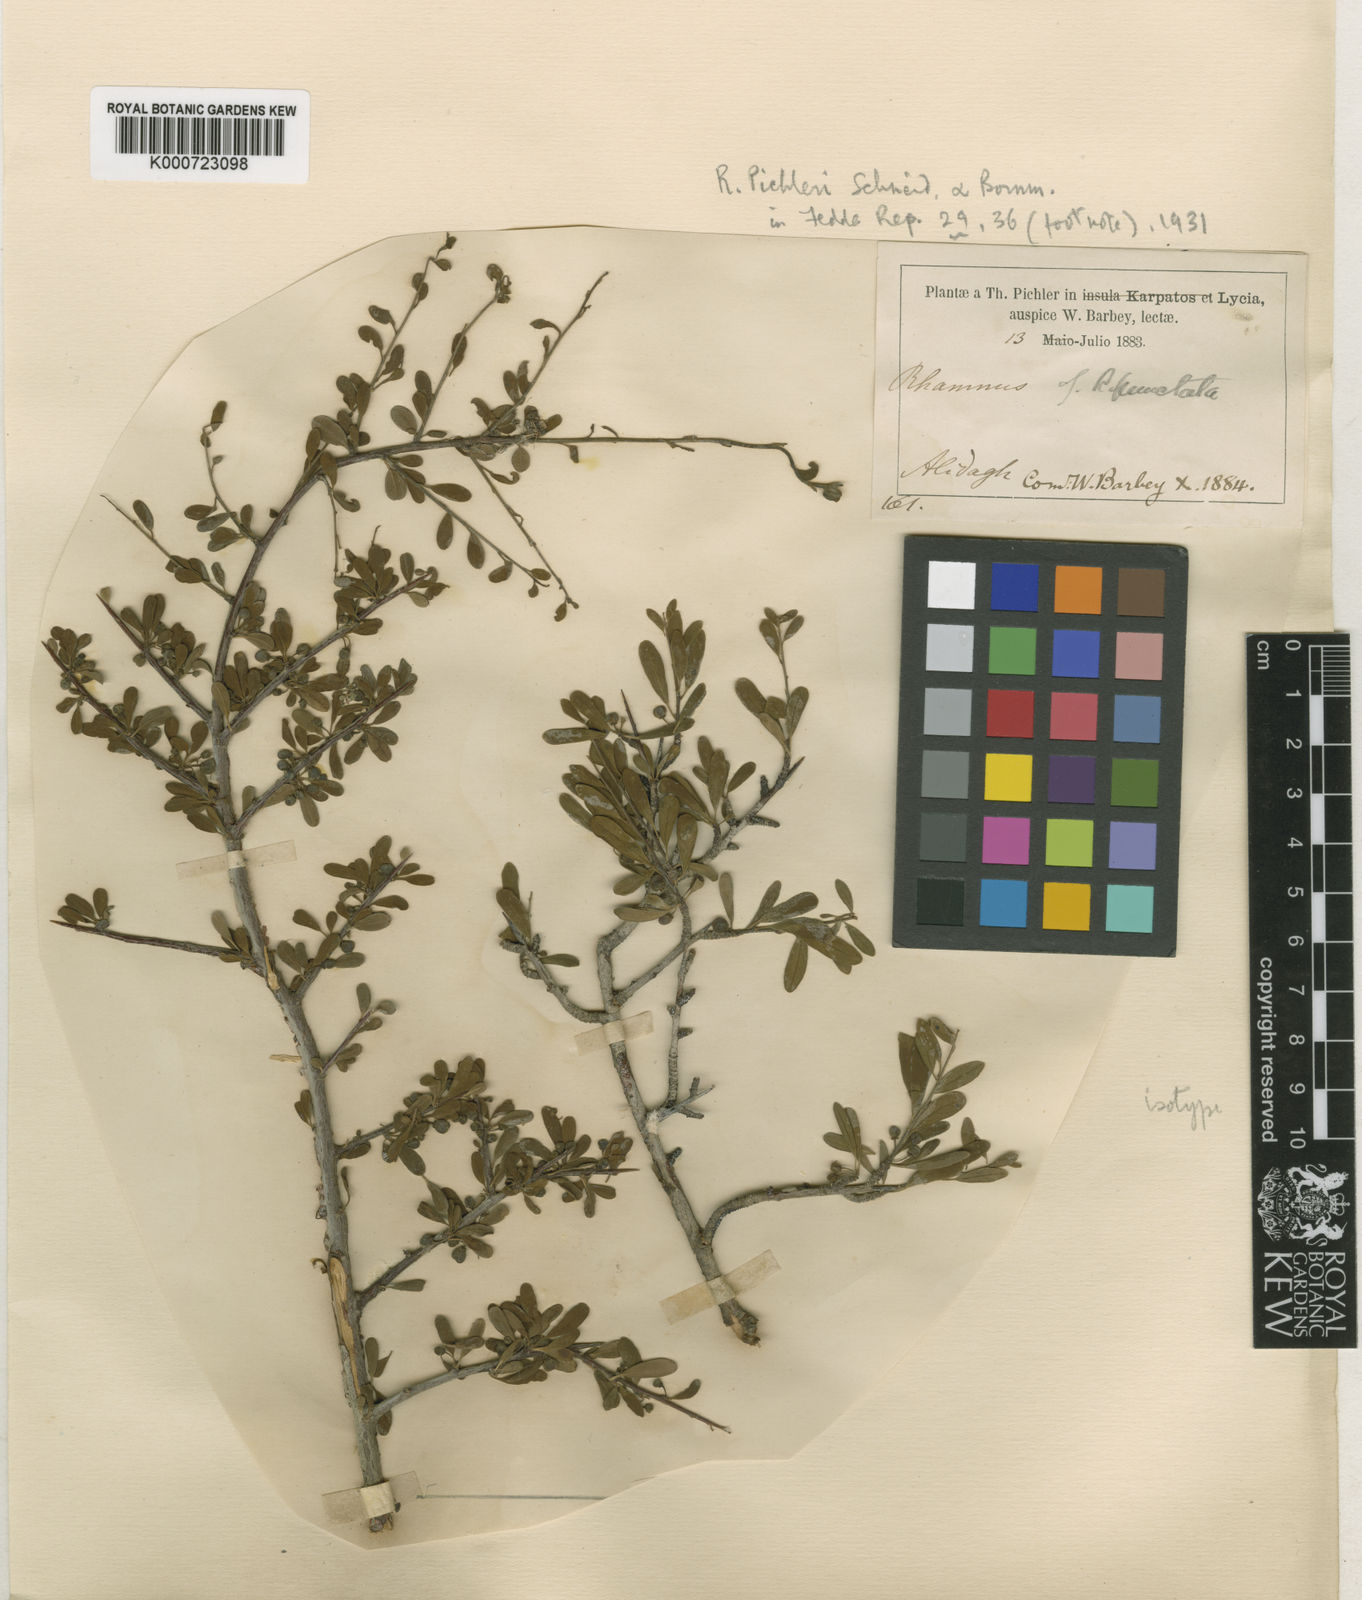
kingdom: Plantae
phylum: Tracheophyta
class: Magnoliopsida
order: Rosales
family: Rhamnaceae
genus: Rhamnus
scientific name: Rhamnus pichleri
